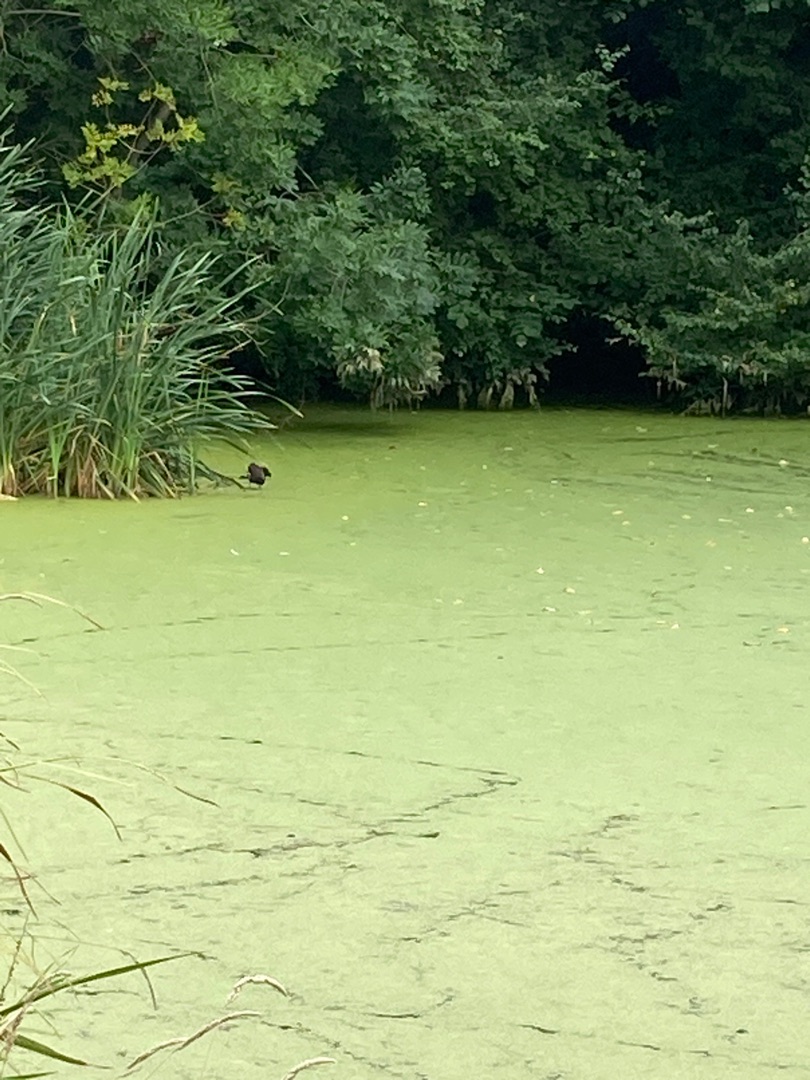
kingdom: Animalia
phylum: Chordata
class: Aves
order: Gruiformes
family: Rallidae
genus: Gallinula
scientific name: Gallinula chloropus
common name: Grønbenet rørhøne
